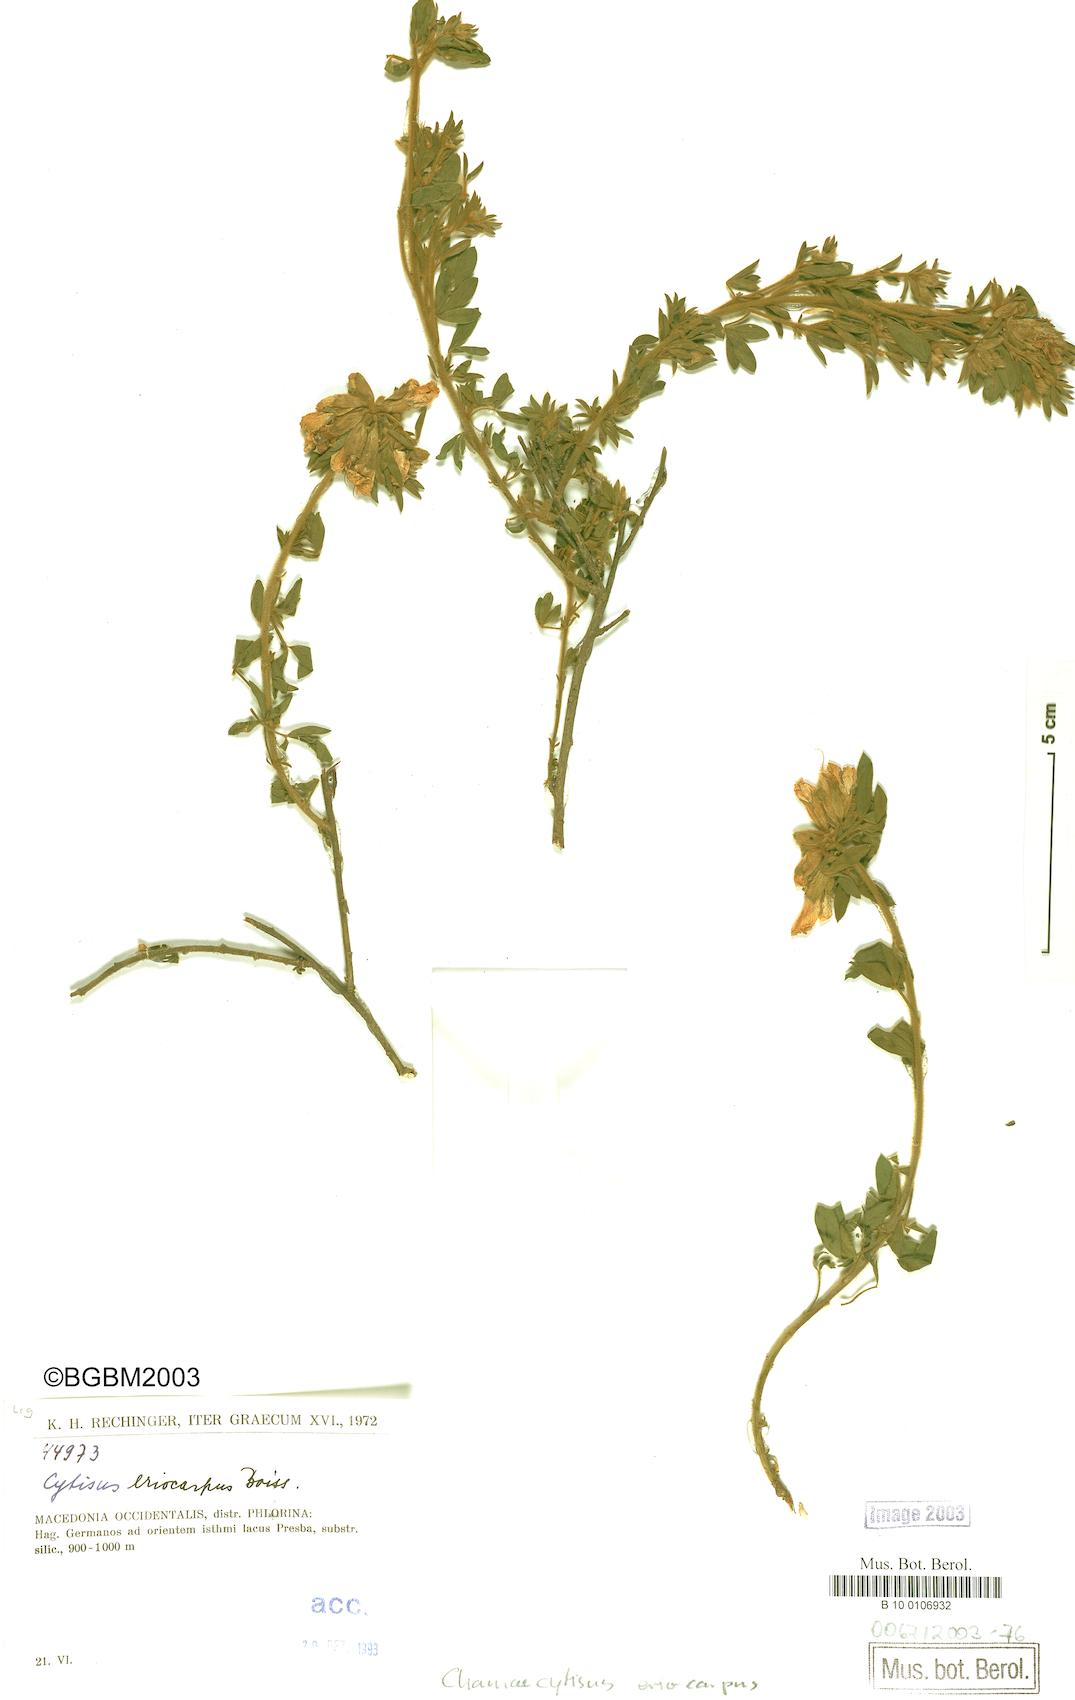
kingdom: Plantae
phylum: Tracheophyta
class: Magnoliopsida
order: Fabales
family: Fabaceae
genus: Chamaecytisus
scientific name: Chamaecytisus eriocarpus
